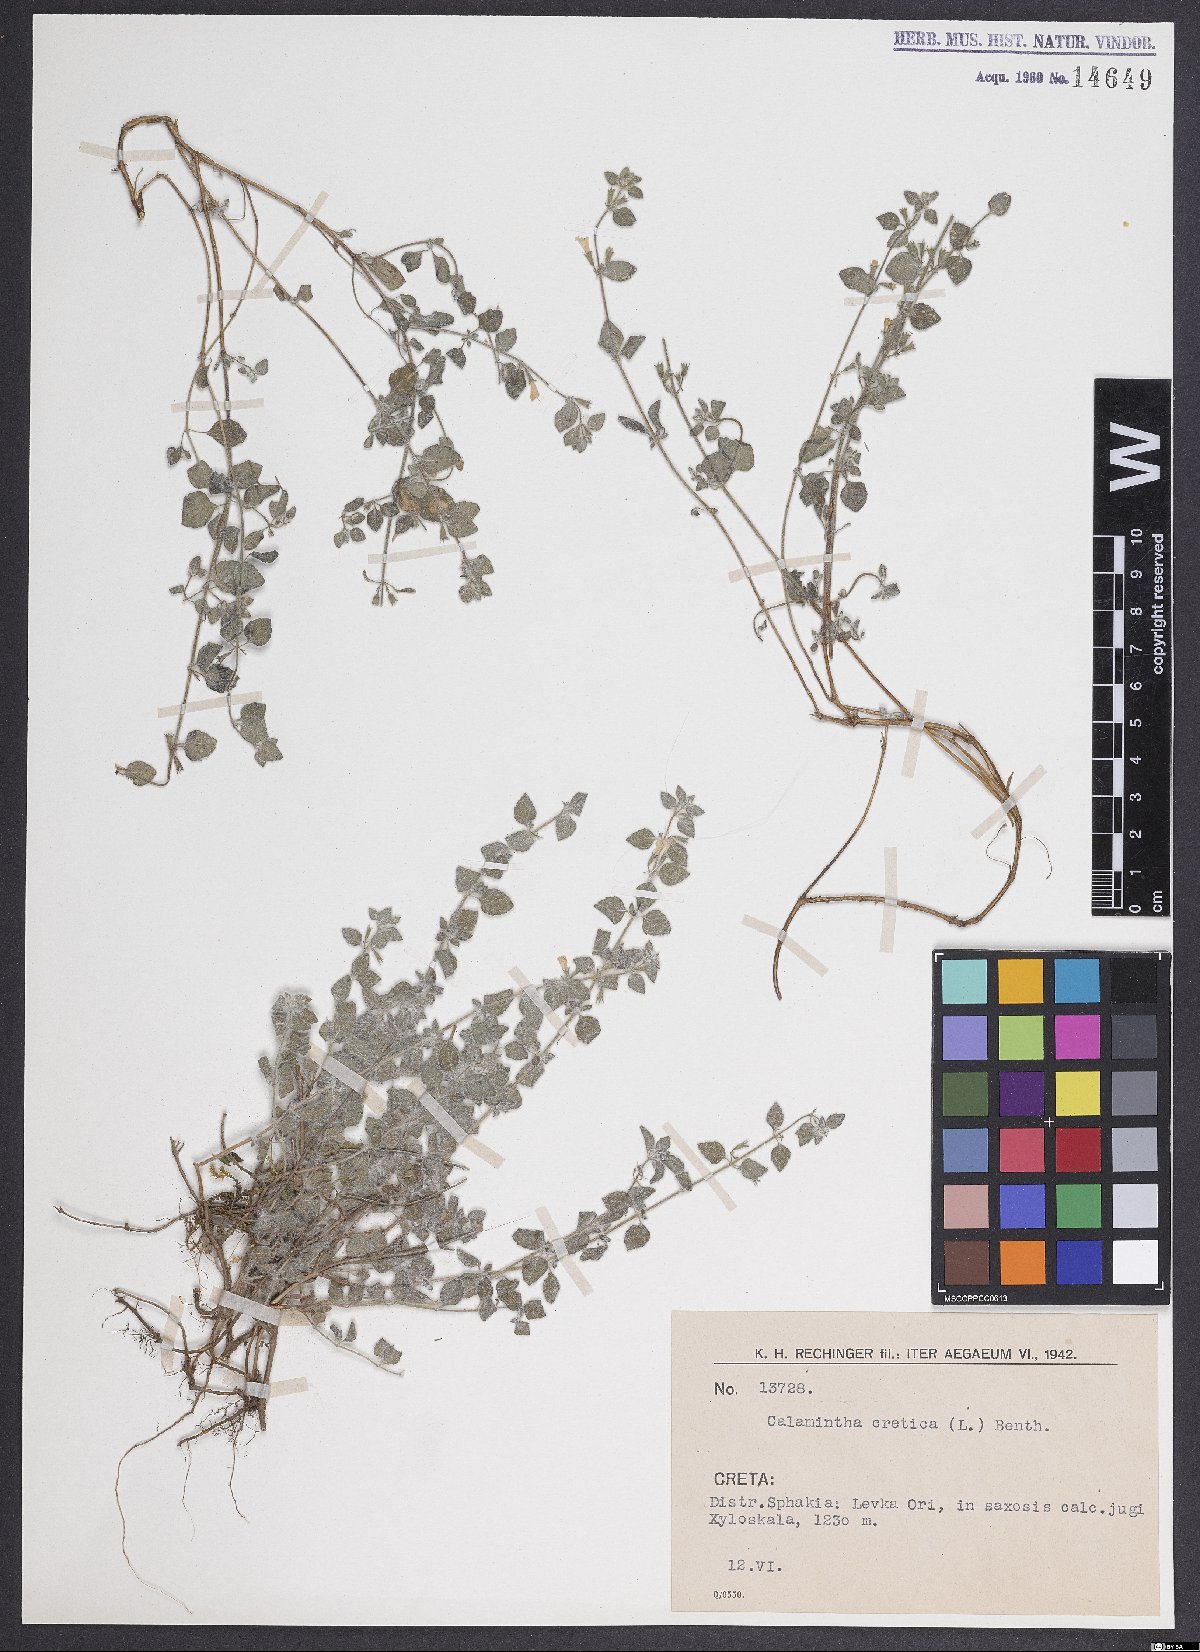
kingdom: Plantae
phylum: Tracheophyta
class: Magnoliopsida
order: Lamiales
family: Lamiaceae
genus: Clinopodium
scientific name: Clinopodium creticum
